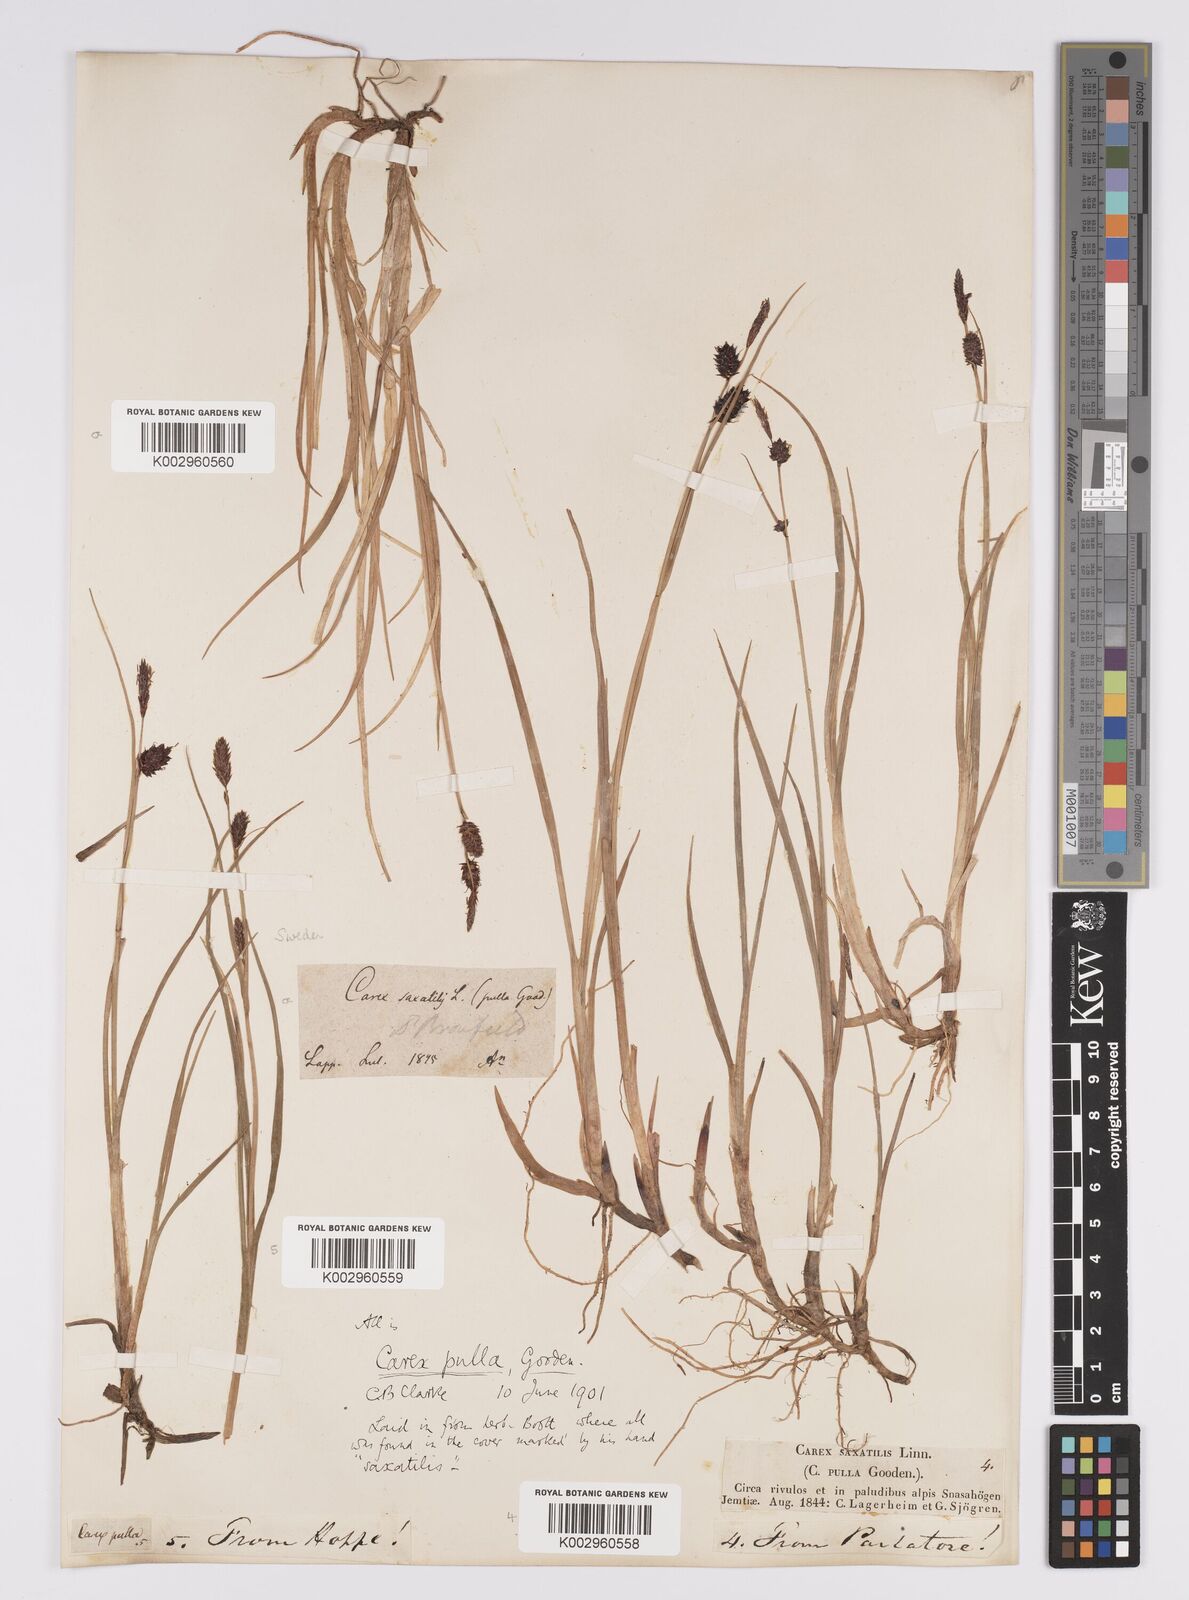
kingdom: Plantae
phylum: Tracheophyta
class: Liliopsida
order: Poales
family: Cyperaceae
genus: Carex
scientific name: Carex saxatilis
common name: Russet sedge
